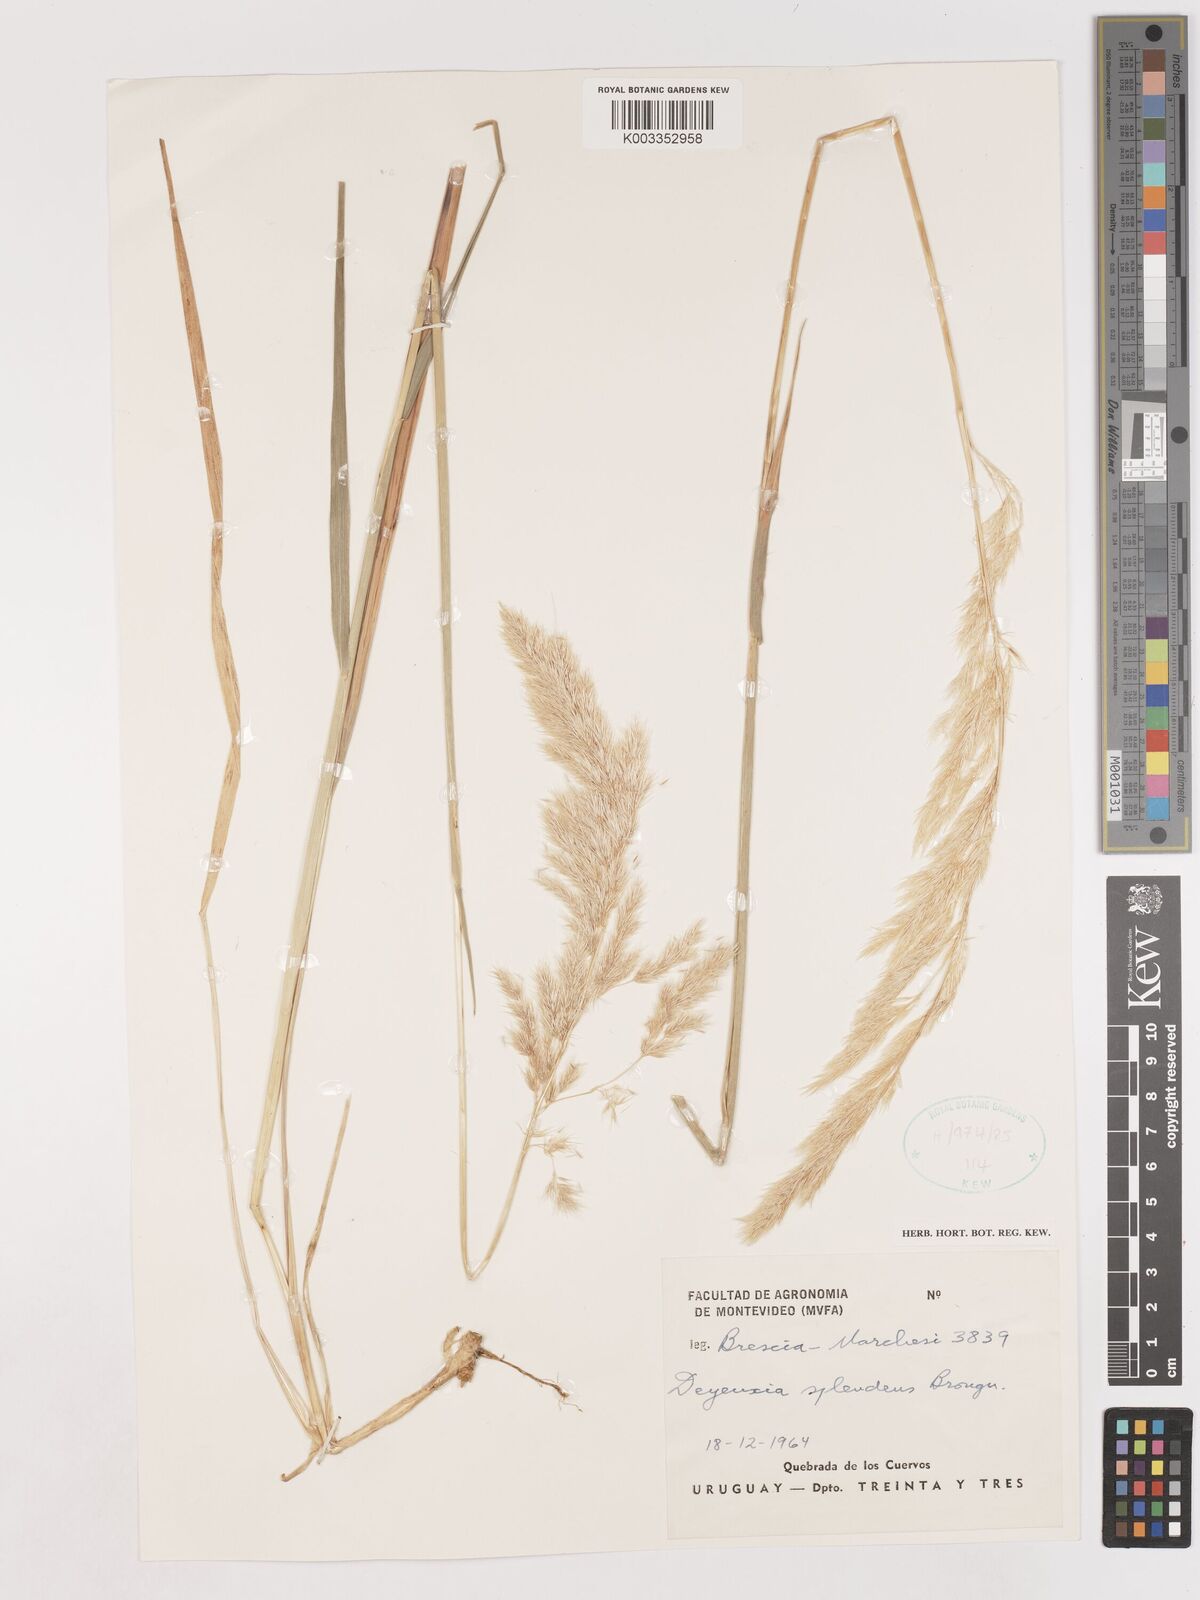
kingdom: Plantae
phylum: Tracheophyta
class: Liliopsida
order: Poales
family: Poaceae
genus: Cinnagrostis
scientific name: Cinnagrostis viridiflavescens
